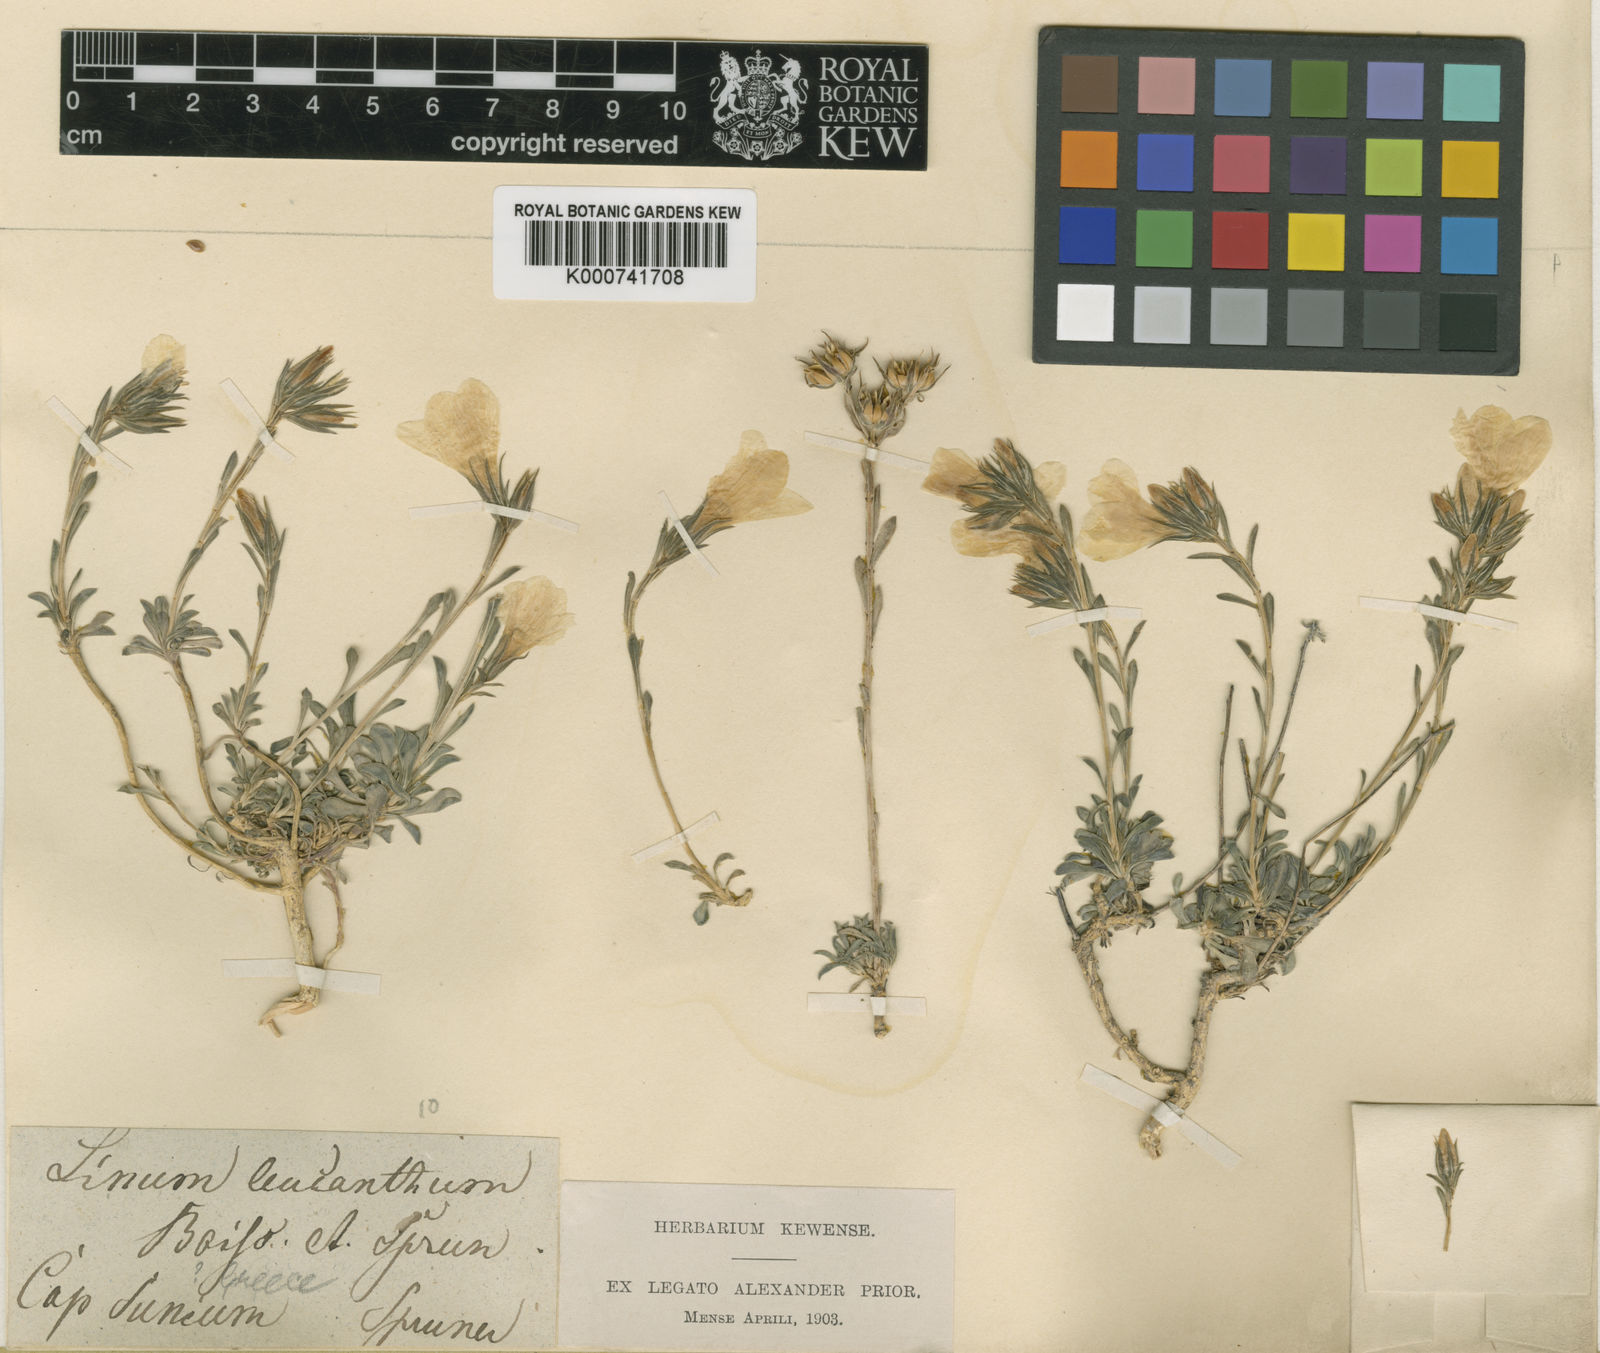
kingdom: Plantae
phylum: Tracheophyta
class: Magnoliopsida
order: Malpighiales
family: Linaceae
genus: Linum
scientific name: Linum leucanthum
